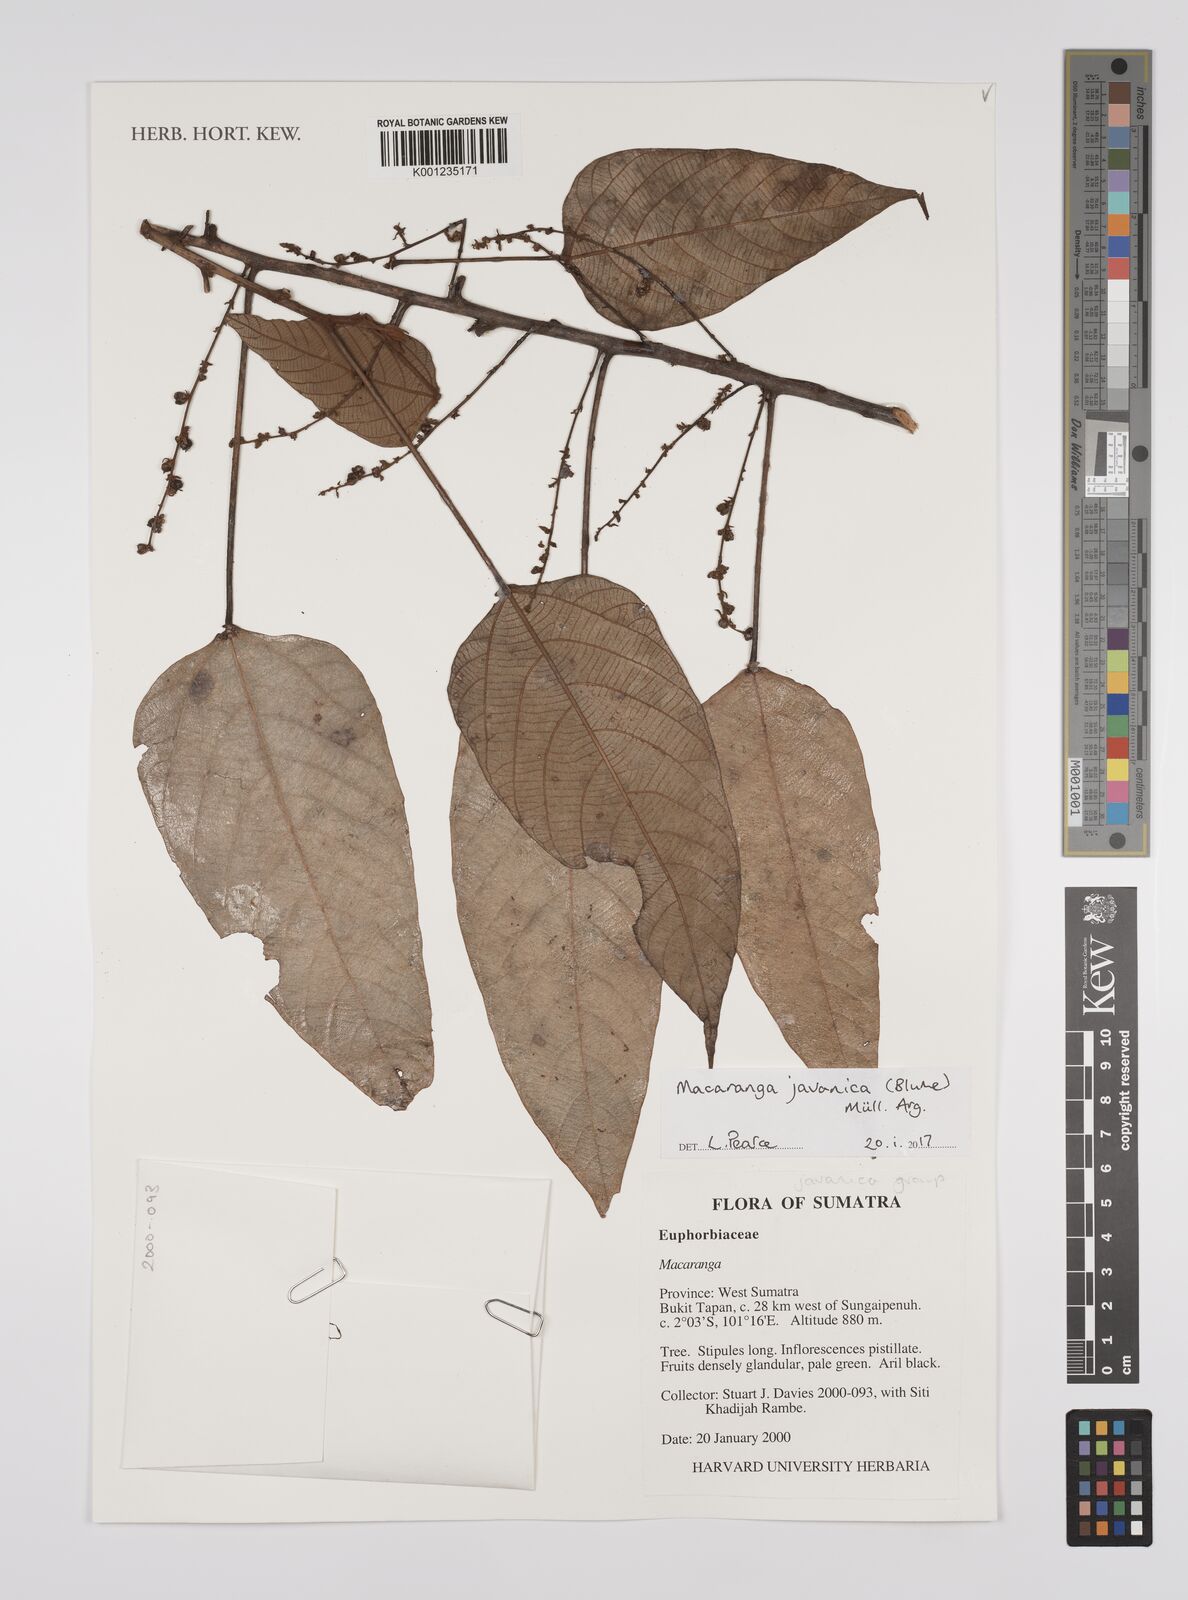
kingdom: Plantae
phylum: Tracheophyta
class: Magnoliopsida
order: Malpighiales
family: Euphorbiaceae
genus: Macaranga
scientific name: Macaranga javanica
